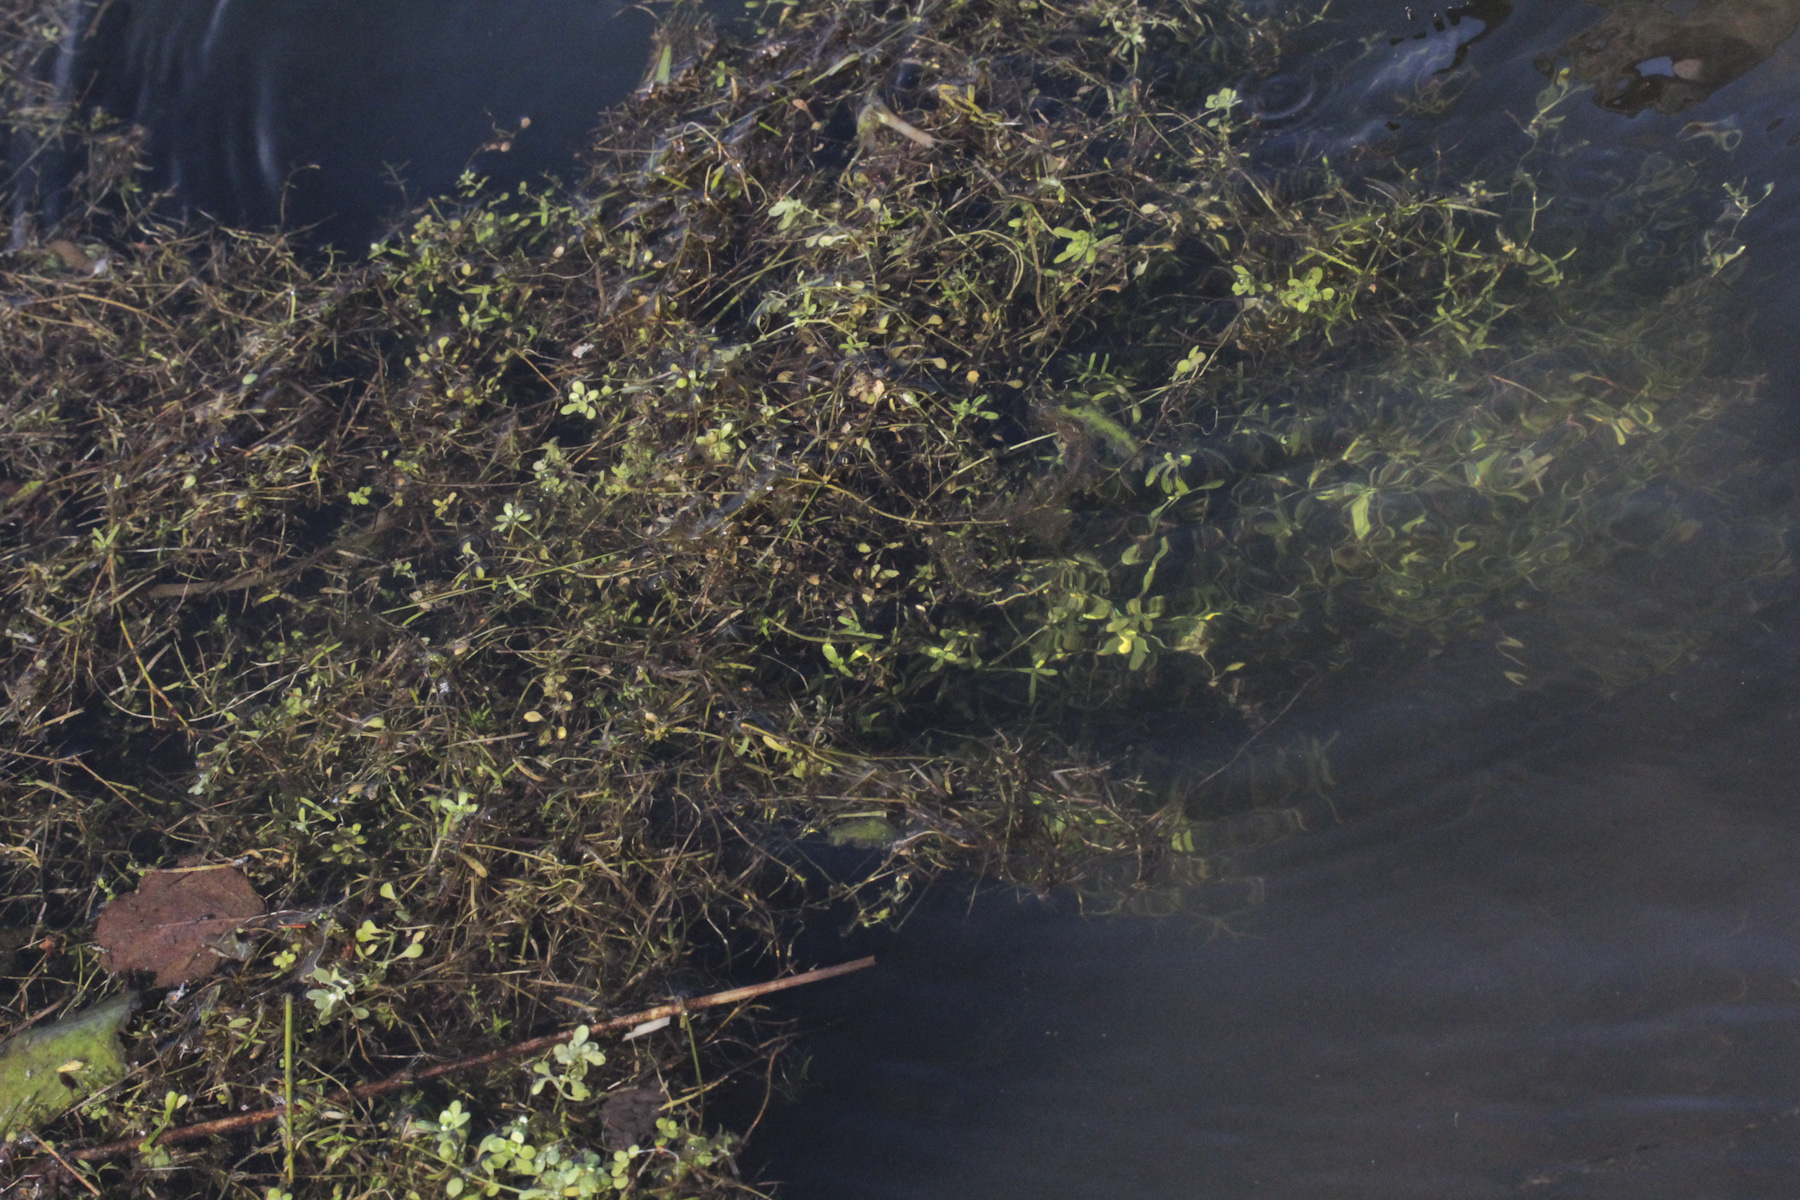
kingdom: Plantae
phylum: Tracheophyta
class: Liliopsida
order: Alismatales
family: Potamogetonaceae
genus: Potamogeton
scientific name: Potamogeton berchtoldii
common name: Small pondweed
